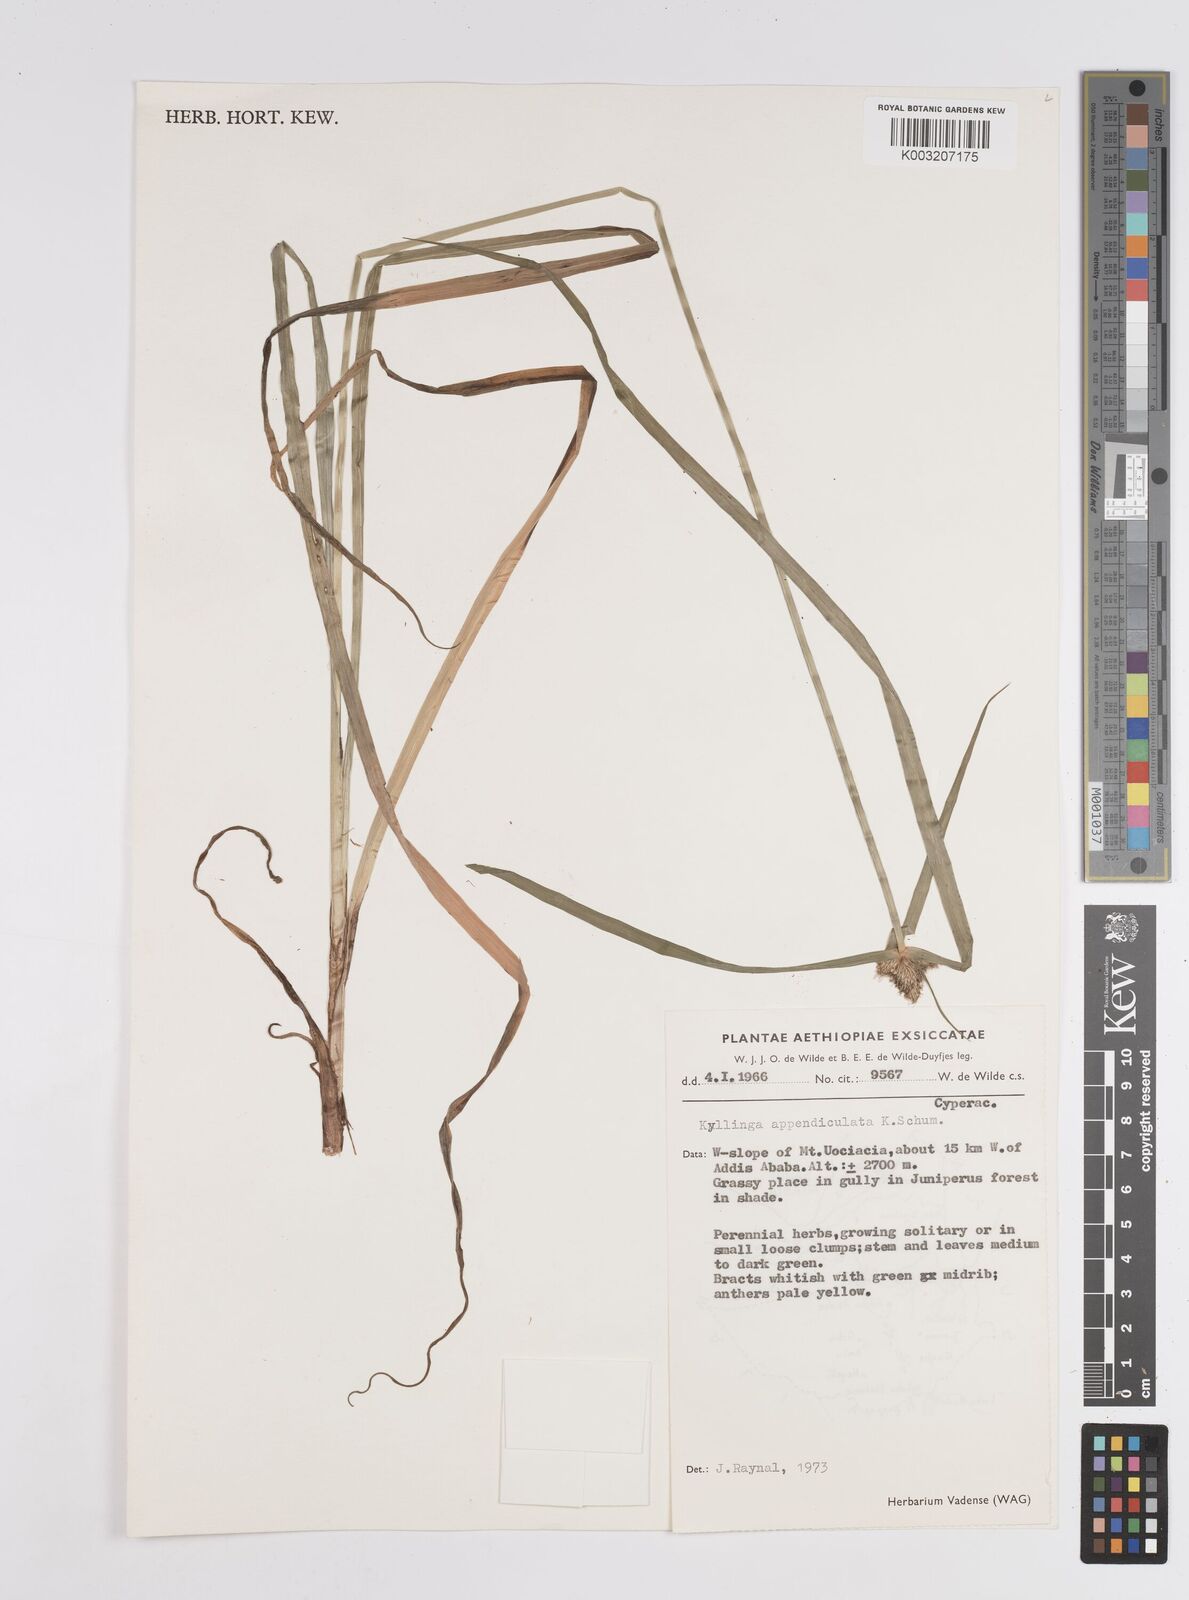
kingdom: Plantae
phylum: Tracheophyta
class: Liliopsida
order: Poales
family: Cyperaceae
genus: Cyperus
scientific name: Cyperus
